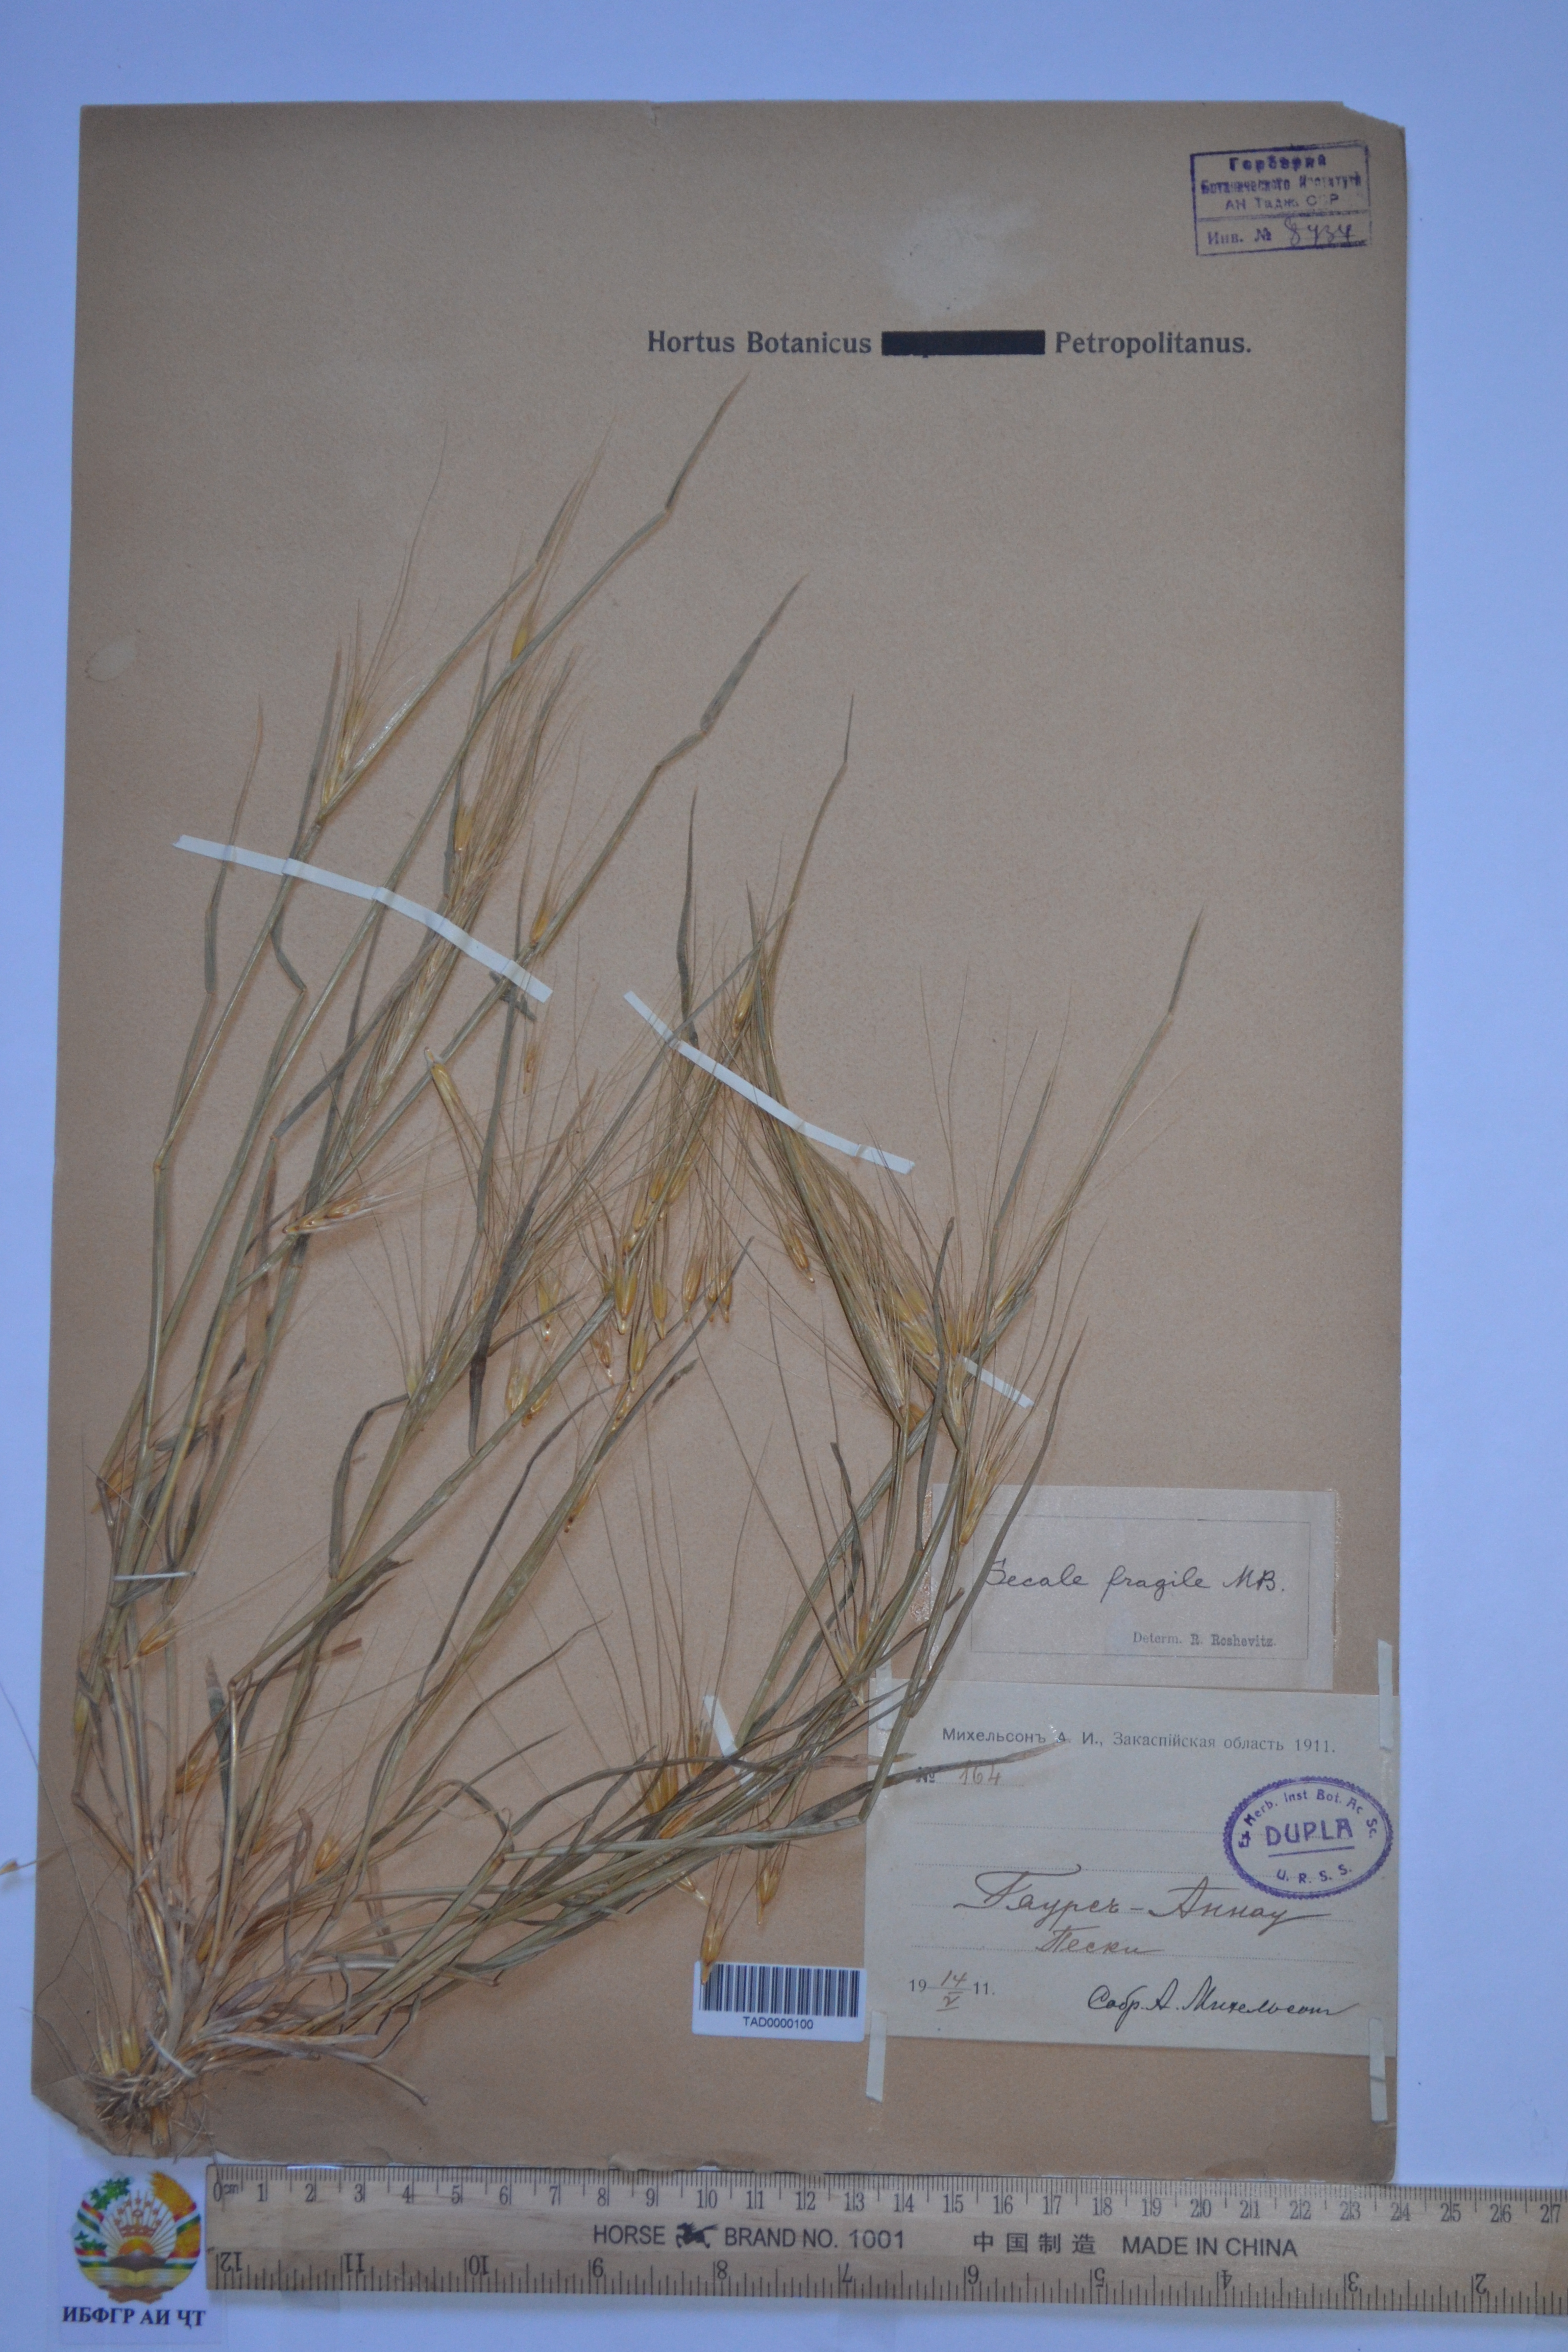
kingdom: Plantae
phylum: Tracheophyta
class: Liliopsida
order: Poales
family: Poaceae
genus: Secale
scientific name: Secale sylvestre
